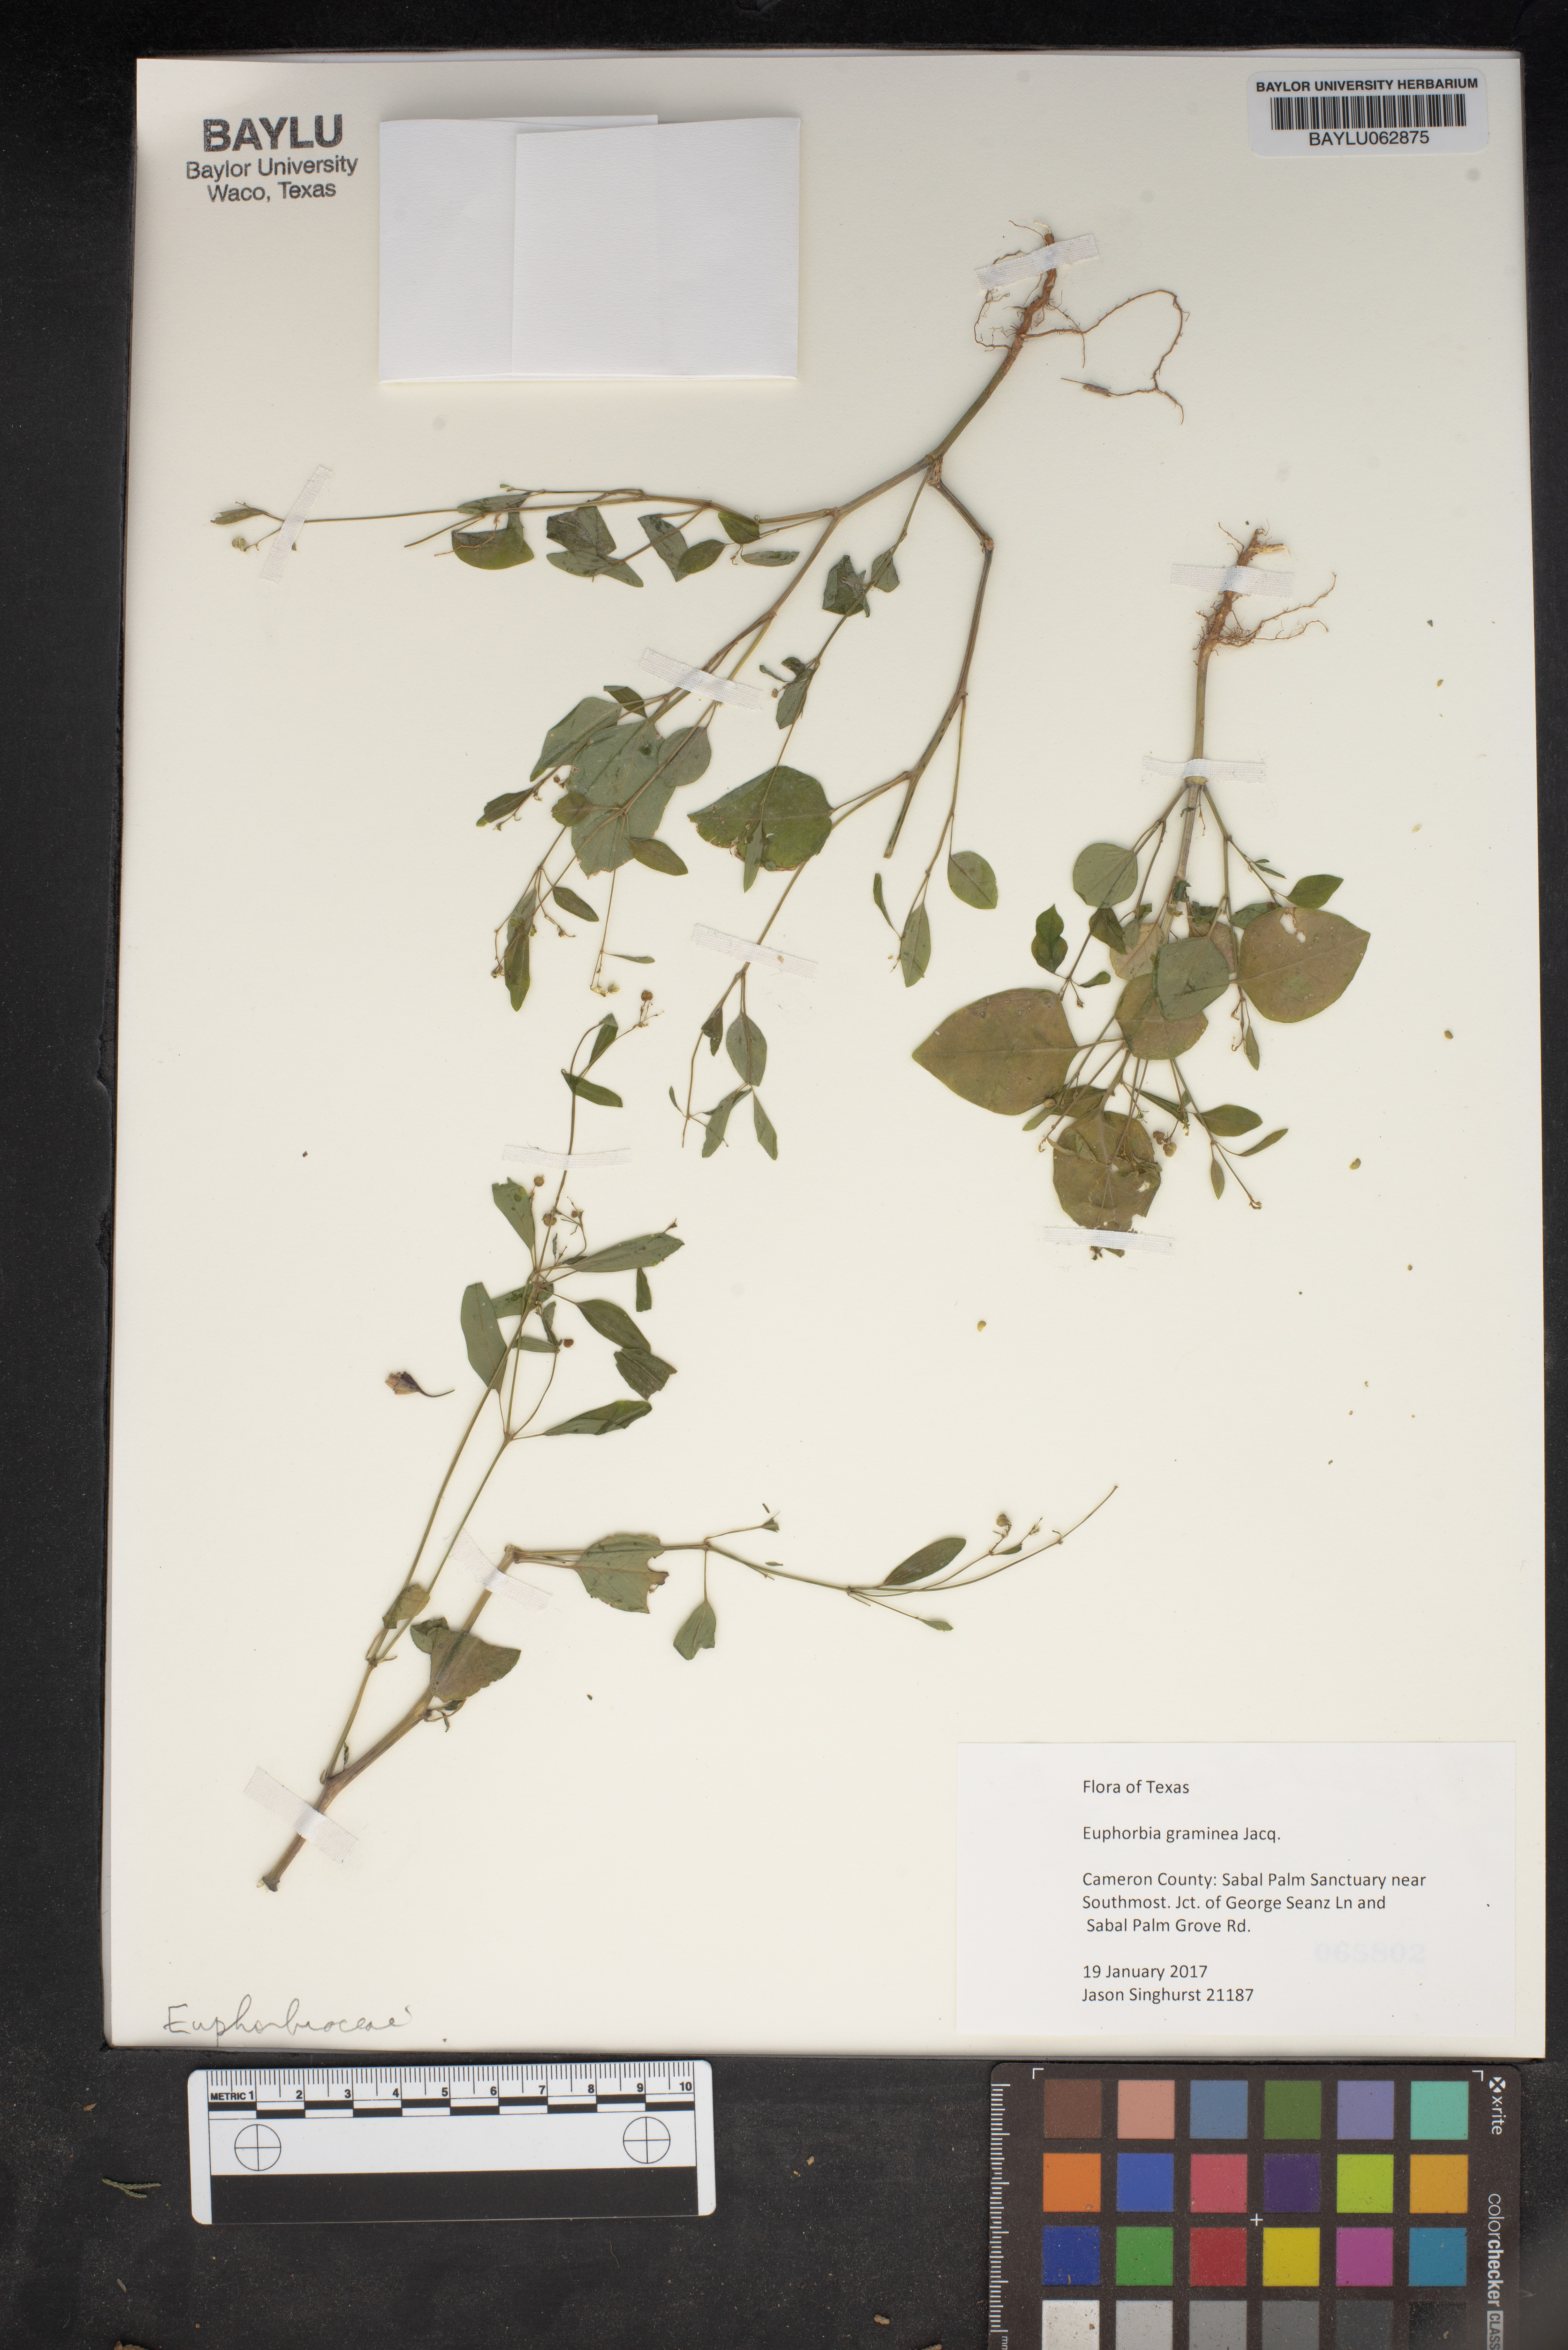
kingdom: Plantae
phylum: Tracheophyta
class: Magnoliopsida
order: Malpighiales
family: Euphorbiaceae
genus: Euphorbia
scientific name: Euphorbia graminea
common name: Grassleaf spurge
